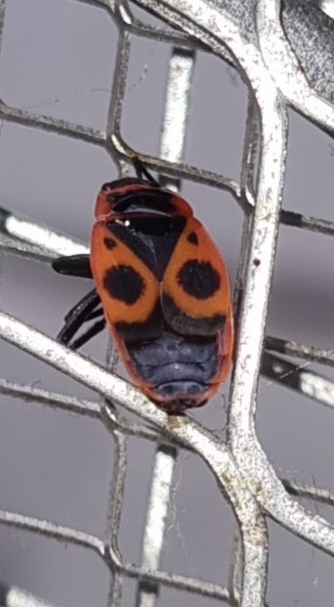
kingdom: Animalia
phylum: Arthropoda
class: Insecta
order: Hemiptera
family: Pyrrhocoridae
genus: Pyrrhocoris
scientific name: Pyrrhocoris apterus
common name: Ildtæge
